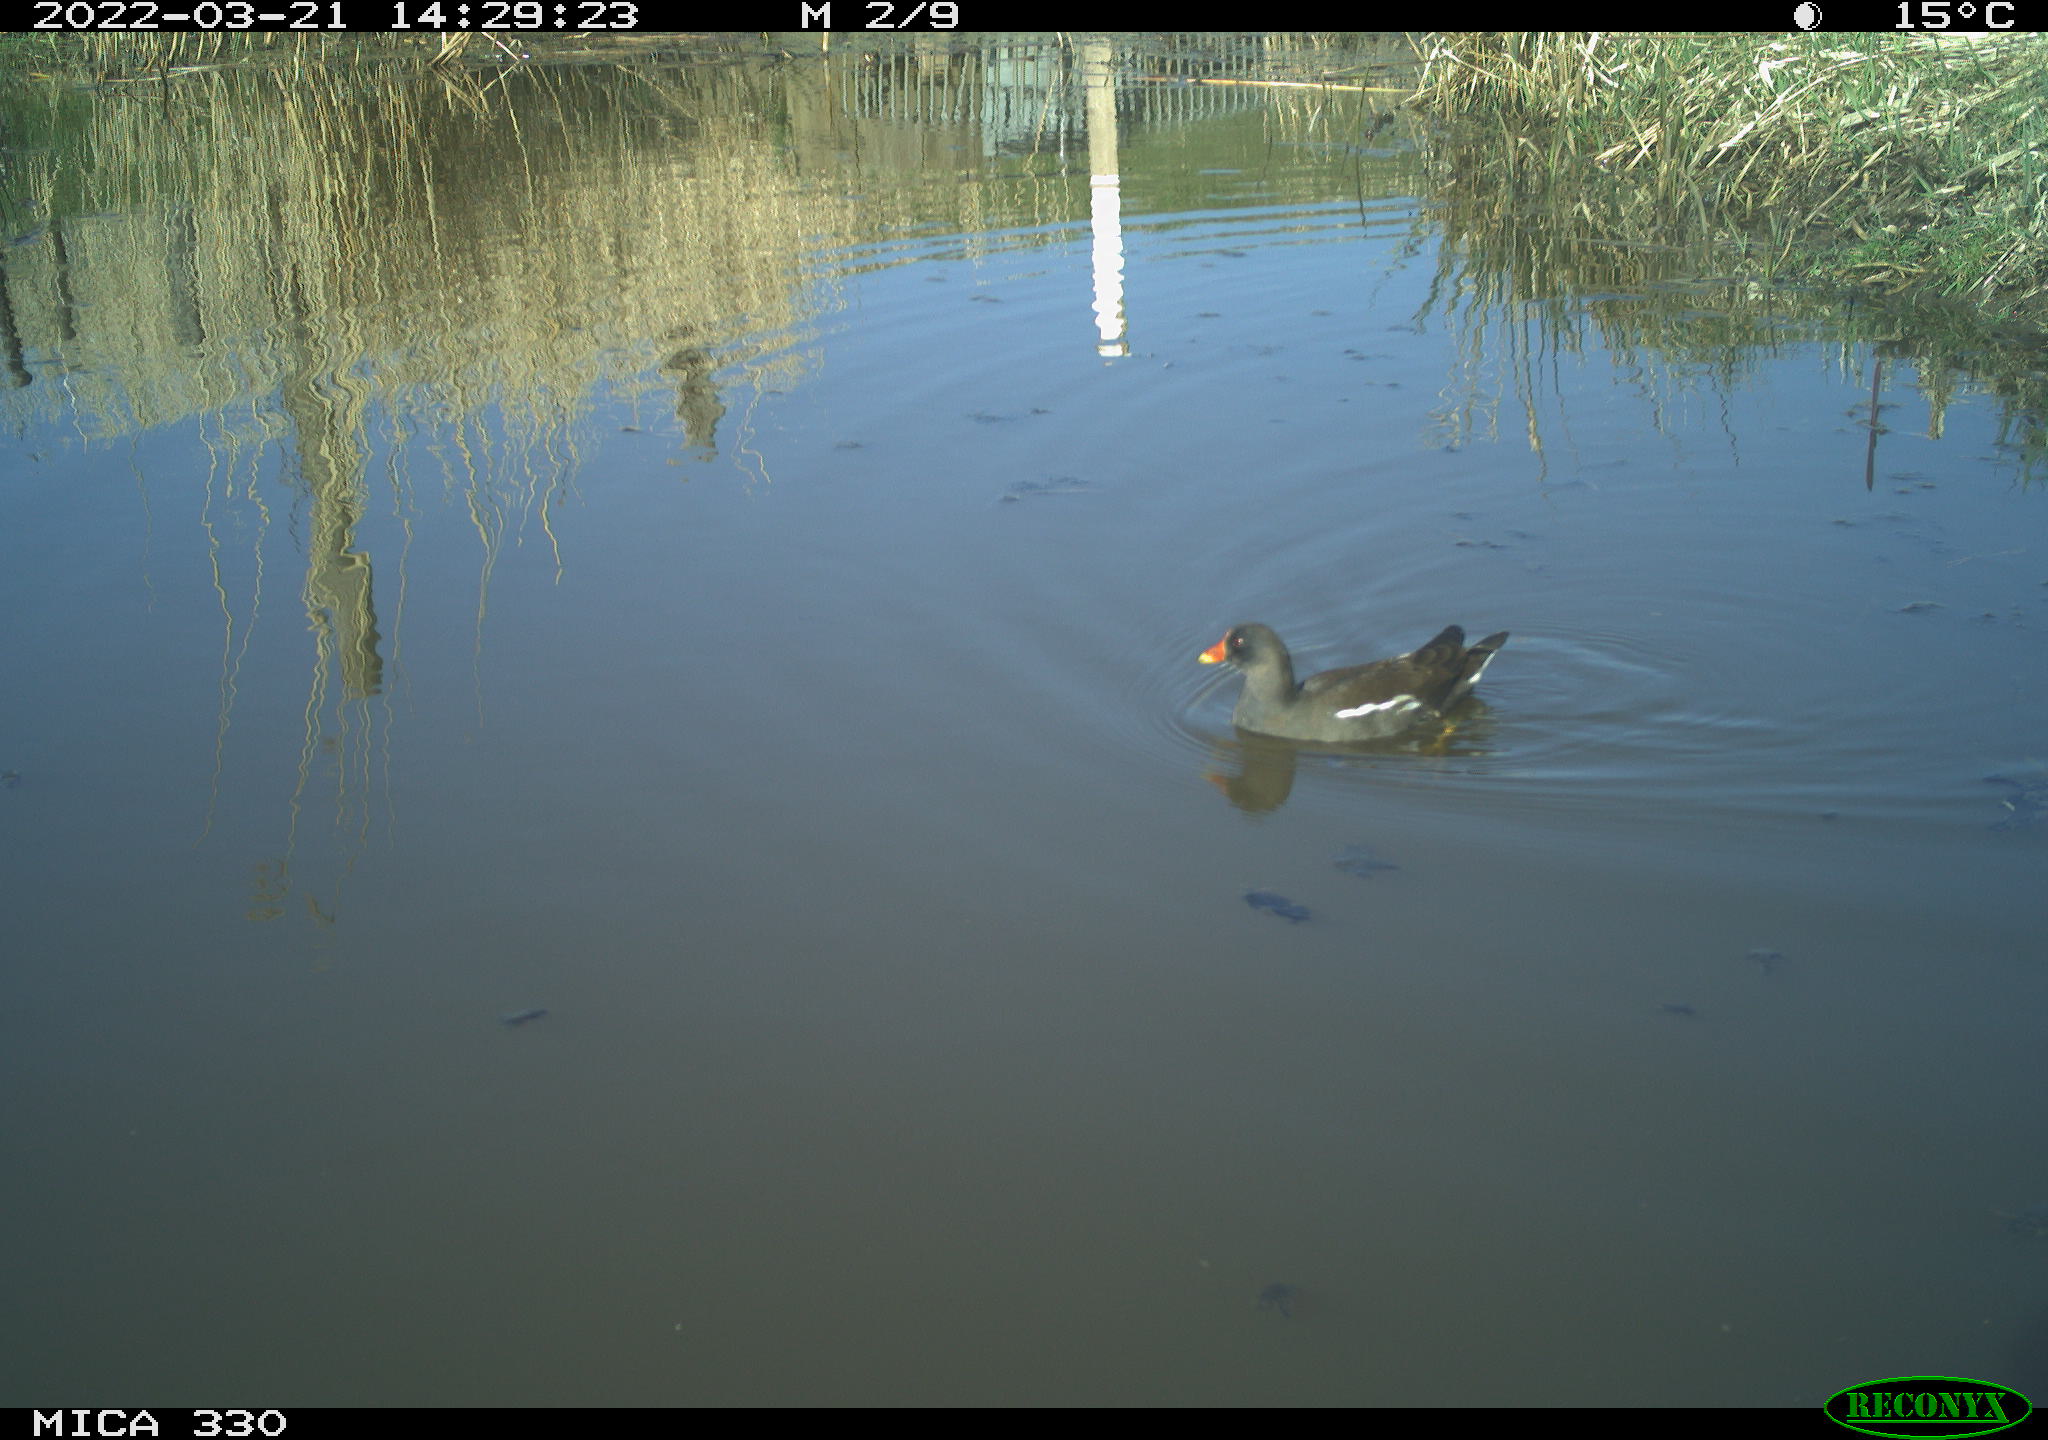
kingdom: Animalia
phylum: Chordata
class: Aves
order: Gruiformes
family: Rallidae
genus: Gallinula
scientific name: Gallinula chloropus
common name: Common moorhen
